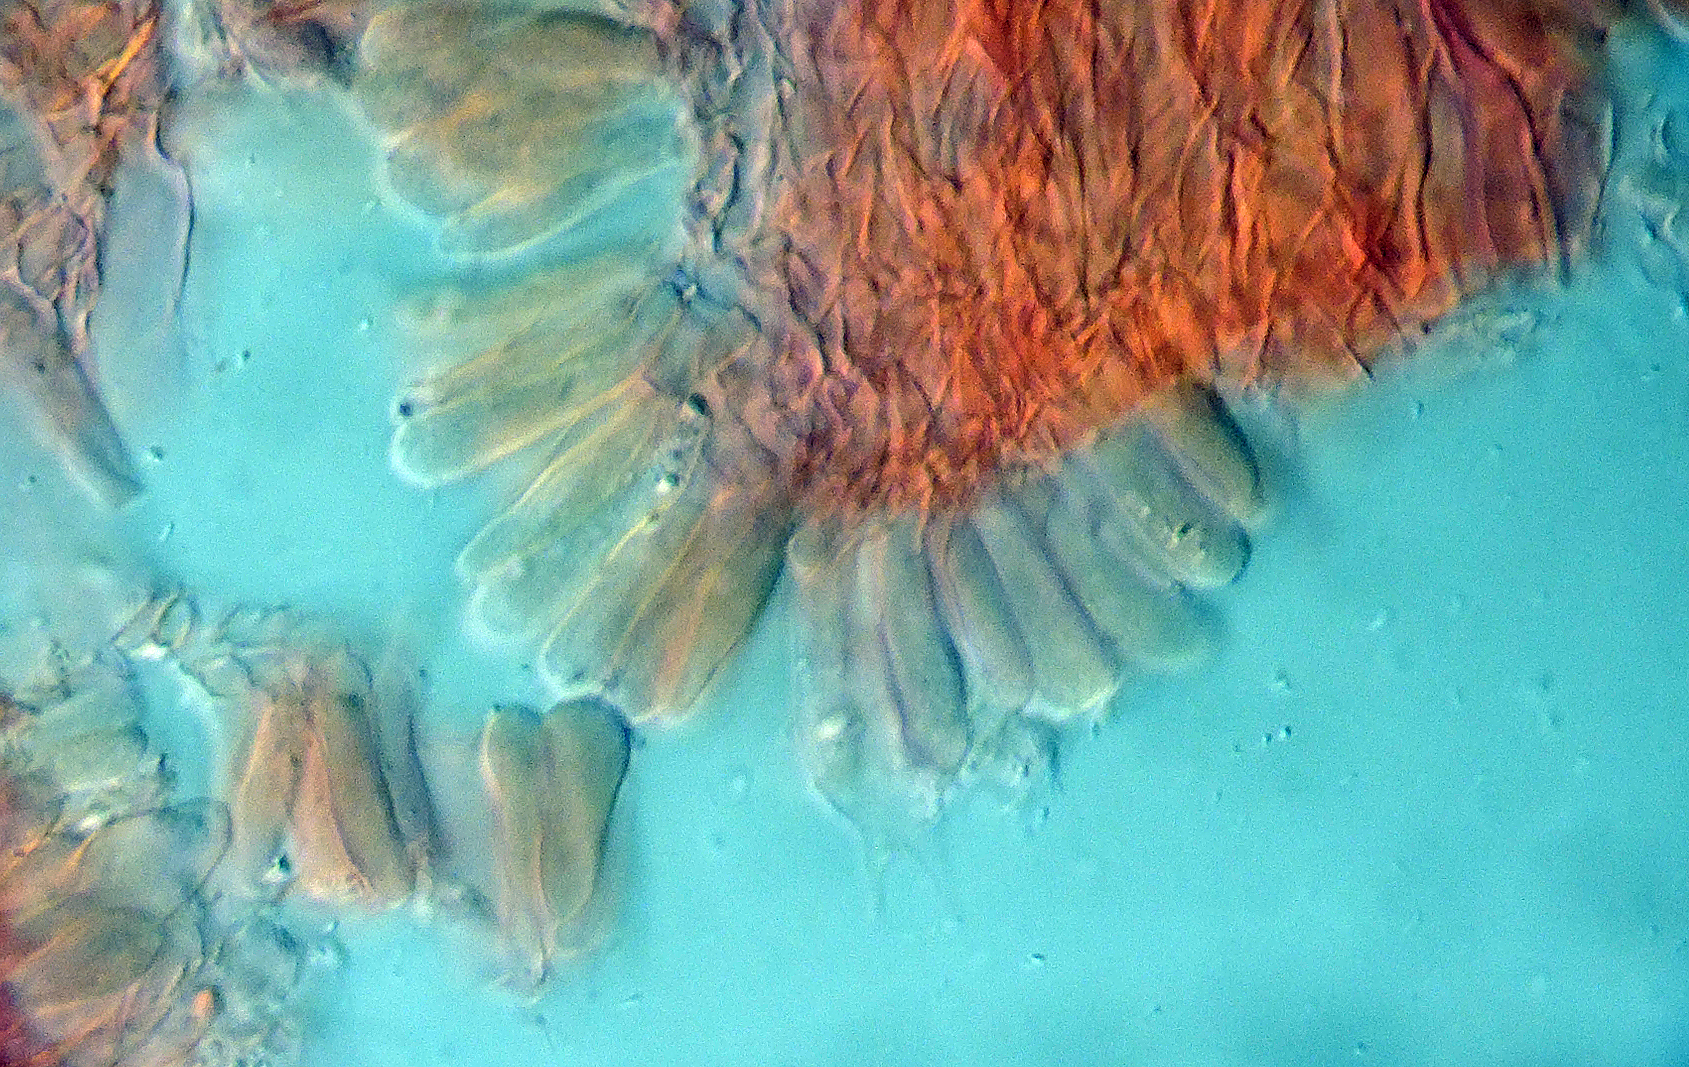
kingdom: Fungi
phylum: Basidiomycota
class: Agaricomycetes
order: Agaricales
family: Mycenaceae
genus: Atheniella
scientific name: Atheniella leptophylla
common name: abrikos-huesvamp
